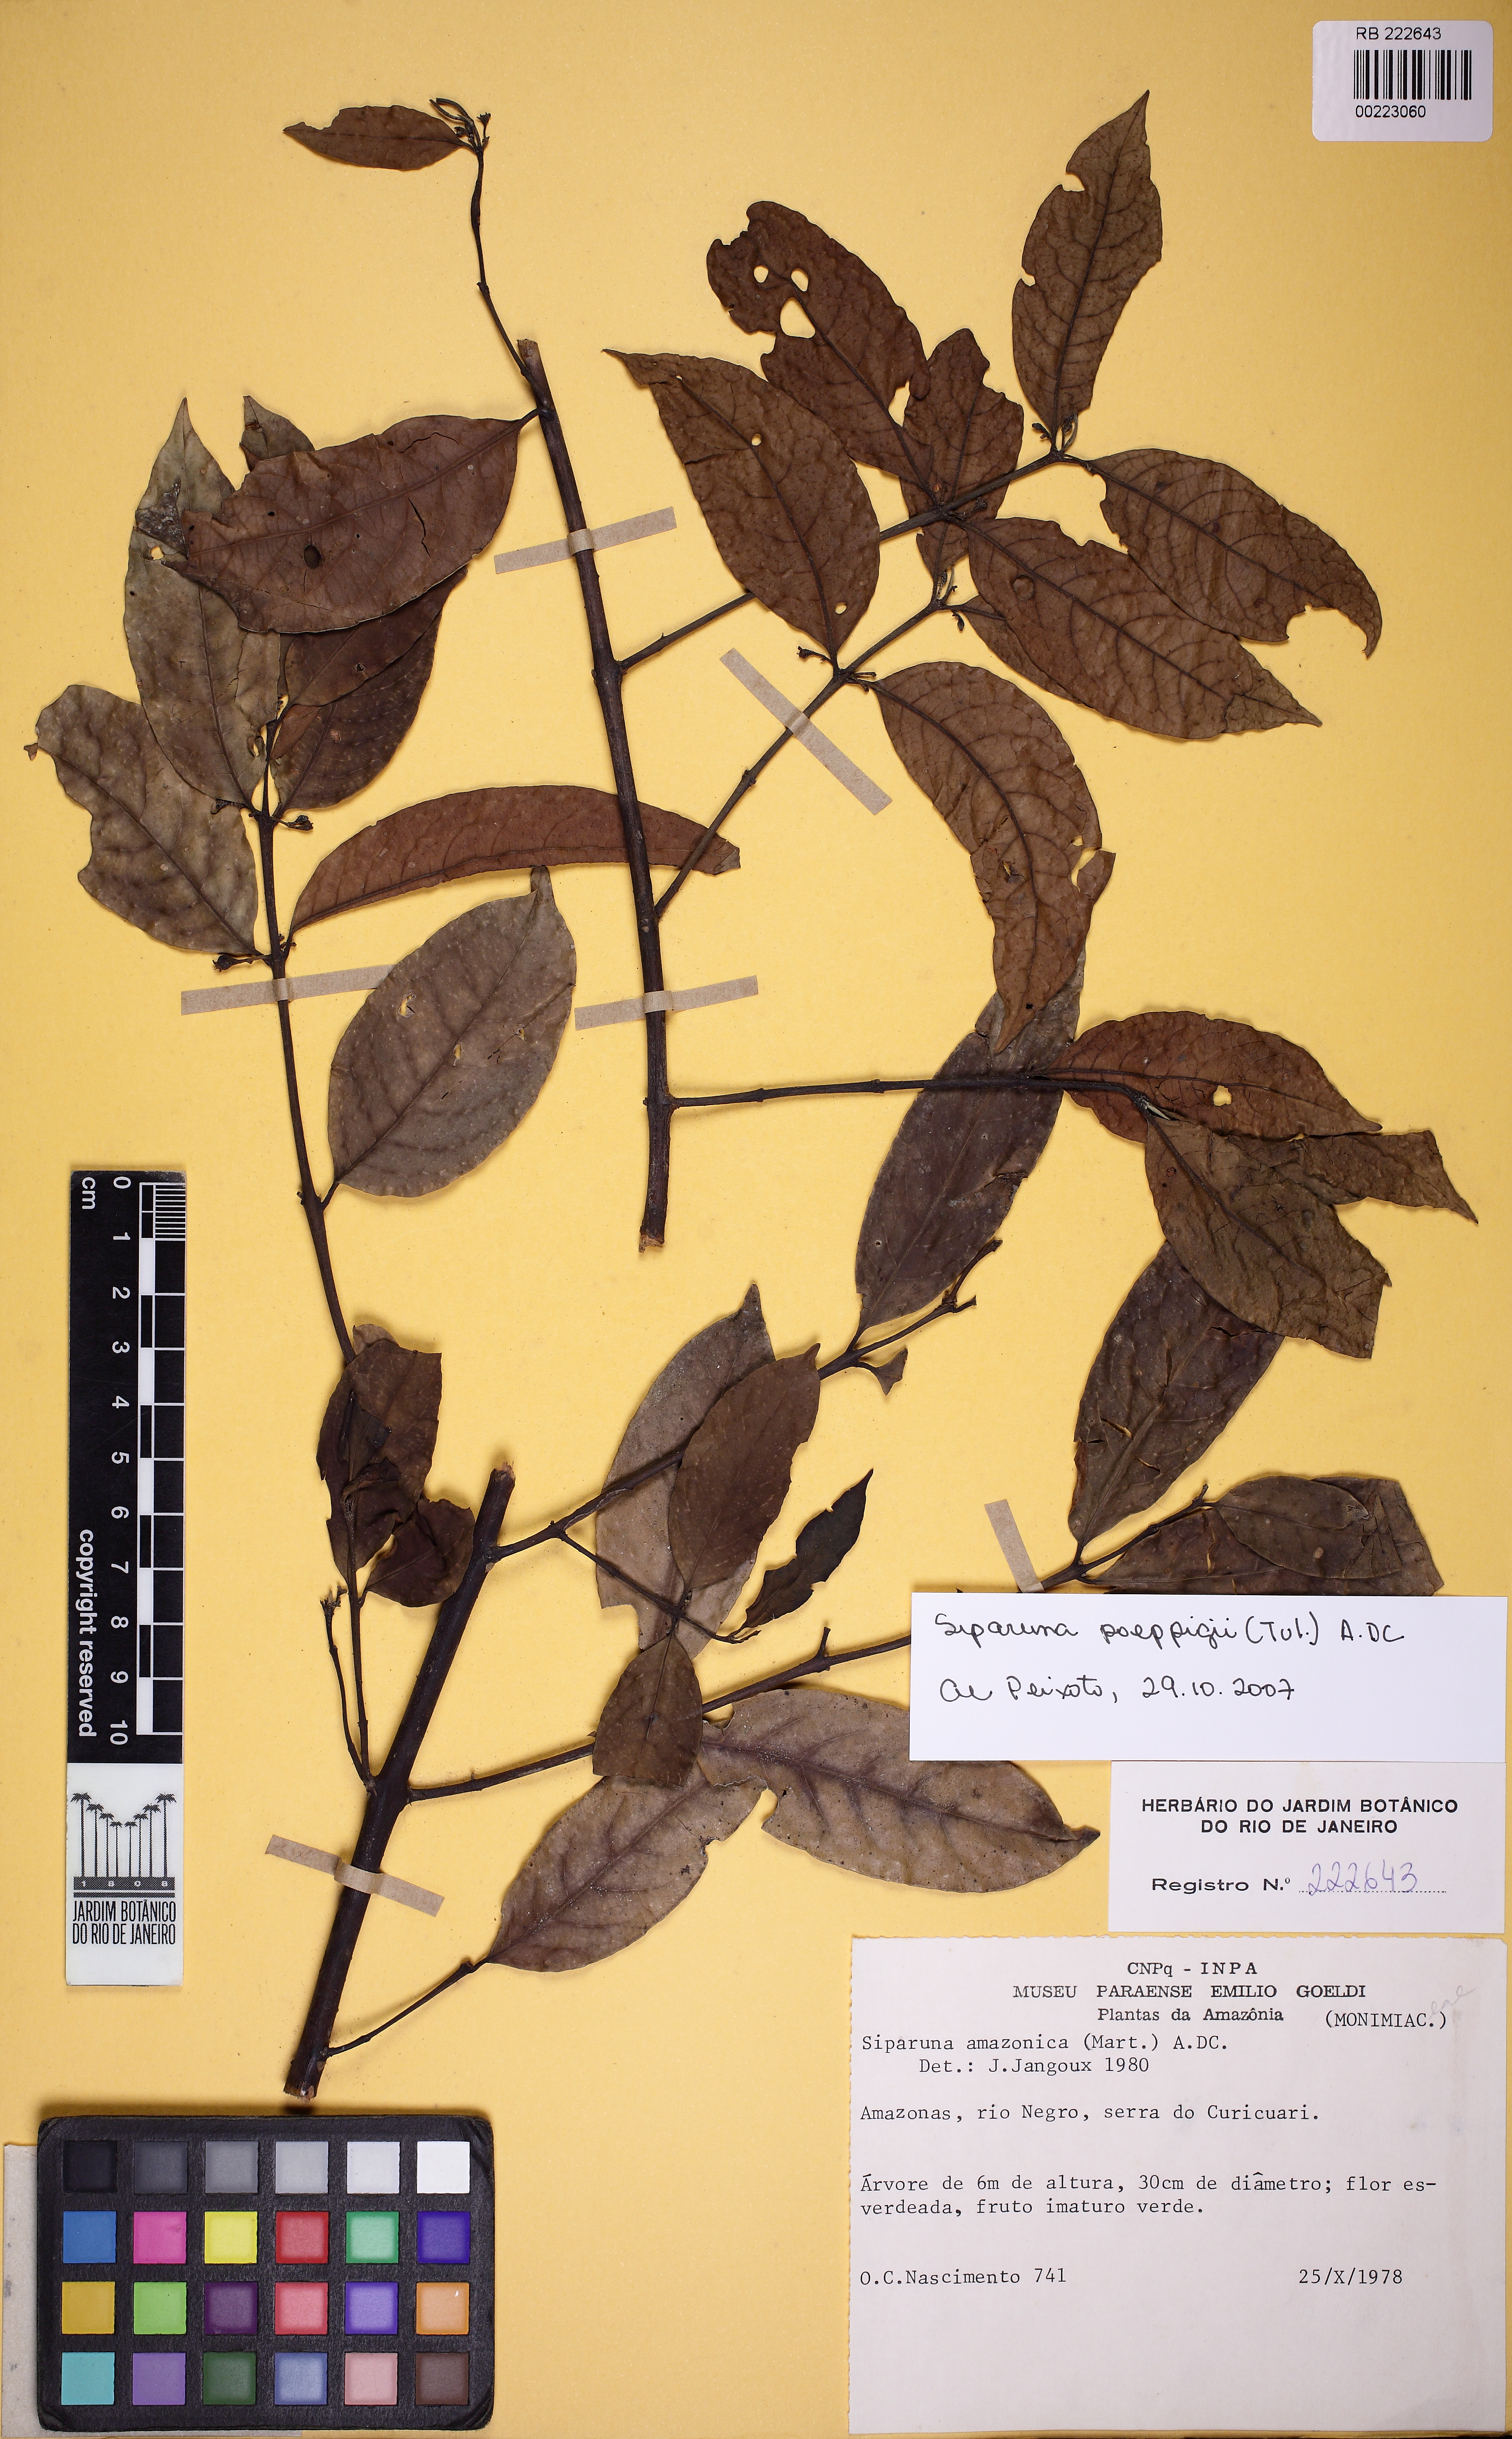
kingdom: Plantae
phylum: Tracheophyta
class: Magnoliopsida
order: Laurales
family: Siparunaceae
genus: Siparuna
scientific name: Siparuna poeppigii
